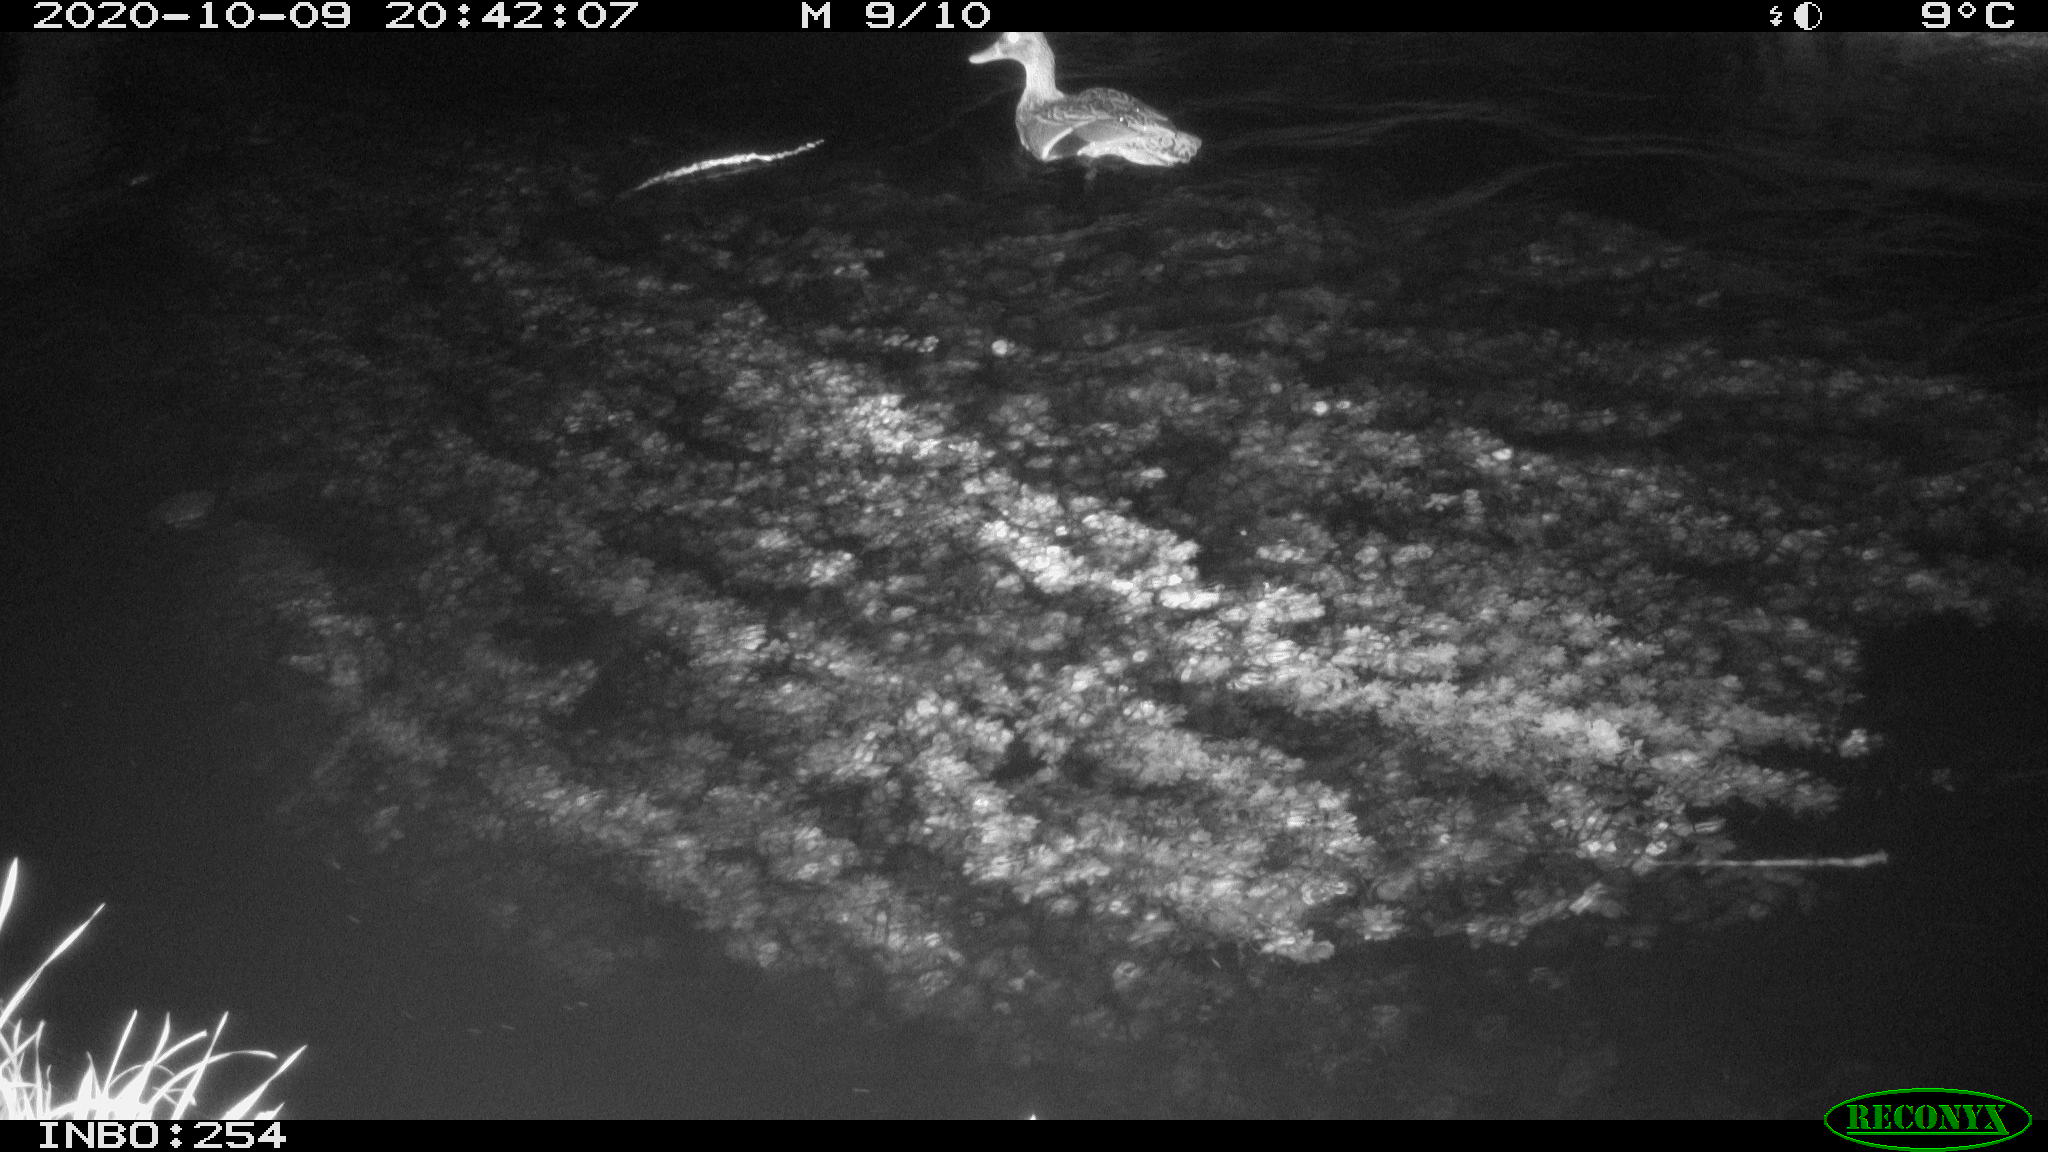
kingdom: Animalia
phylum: Chordata
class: Aves
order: Anseriformes
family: Anatidae
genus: Anas
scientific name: Anas platyrhynchos
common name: Mallard
